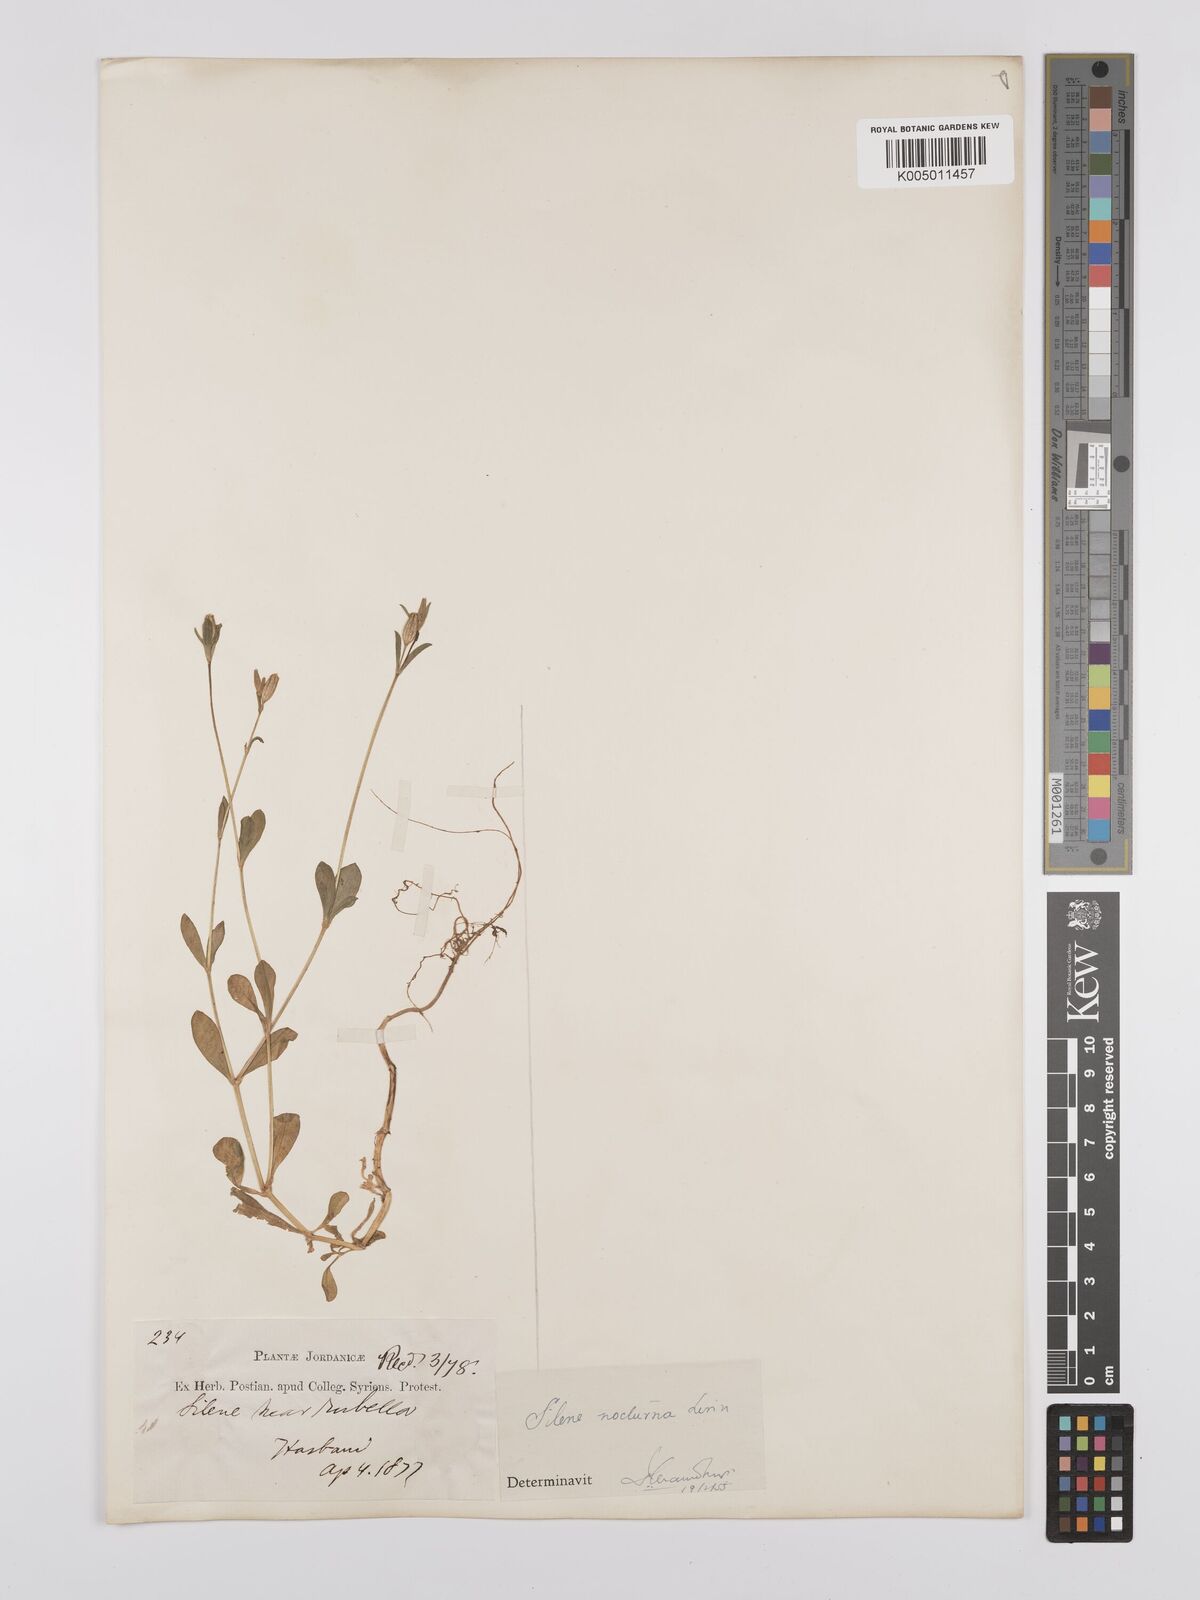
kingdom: Plantae
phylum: Tracheophyta
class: Magnoliopsida
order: Caryophyllales
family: Caryophyllaceae
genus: Silene
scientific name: Silene nocturna
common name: Mediterranean catchfly
